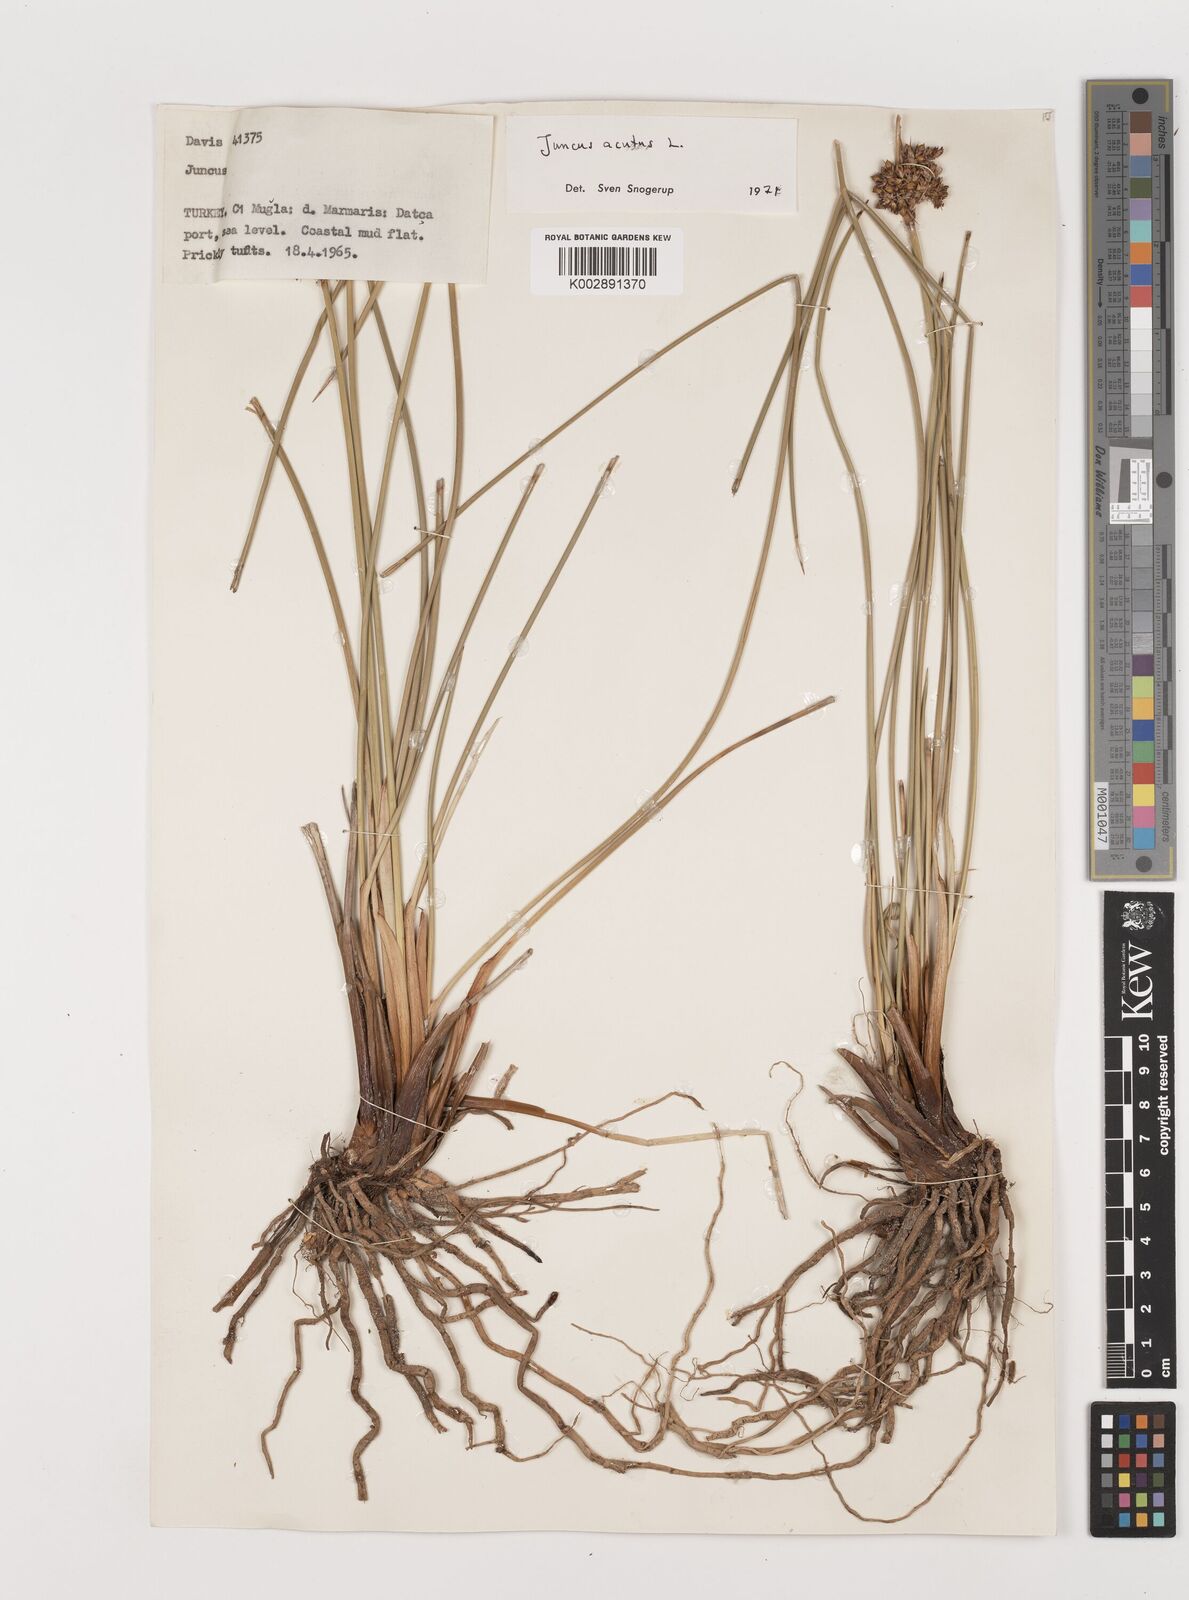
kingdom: Plantae
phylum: Tracheophyta
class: Liliopsida
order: Poales
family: Juncaceae
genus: Juncus
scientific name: Juncus acutus
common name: Sharp rush
